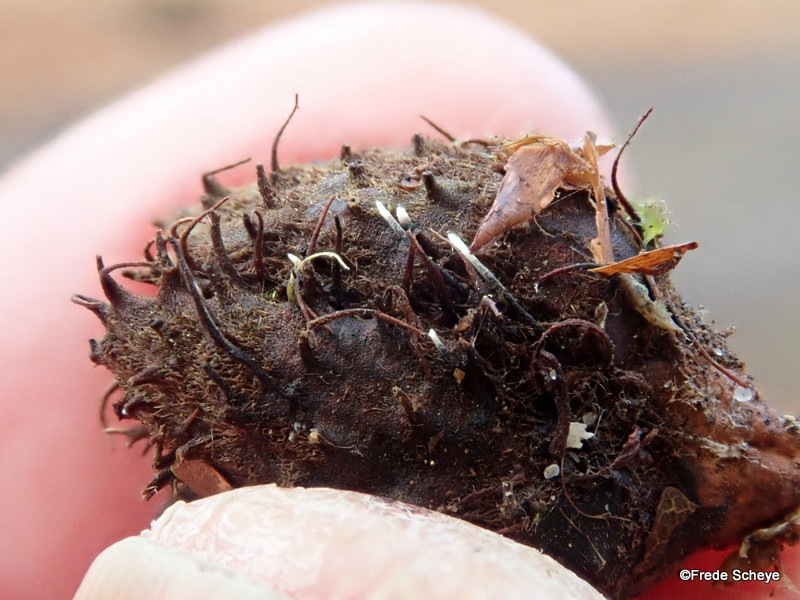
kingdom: Fungi
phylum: Ascomycota
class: Sordariomycetes
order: Xylariales
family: Xylariaceae
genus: Xylaria
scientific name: Xylaria carpophila
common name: bogskål-stødsvamp
